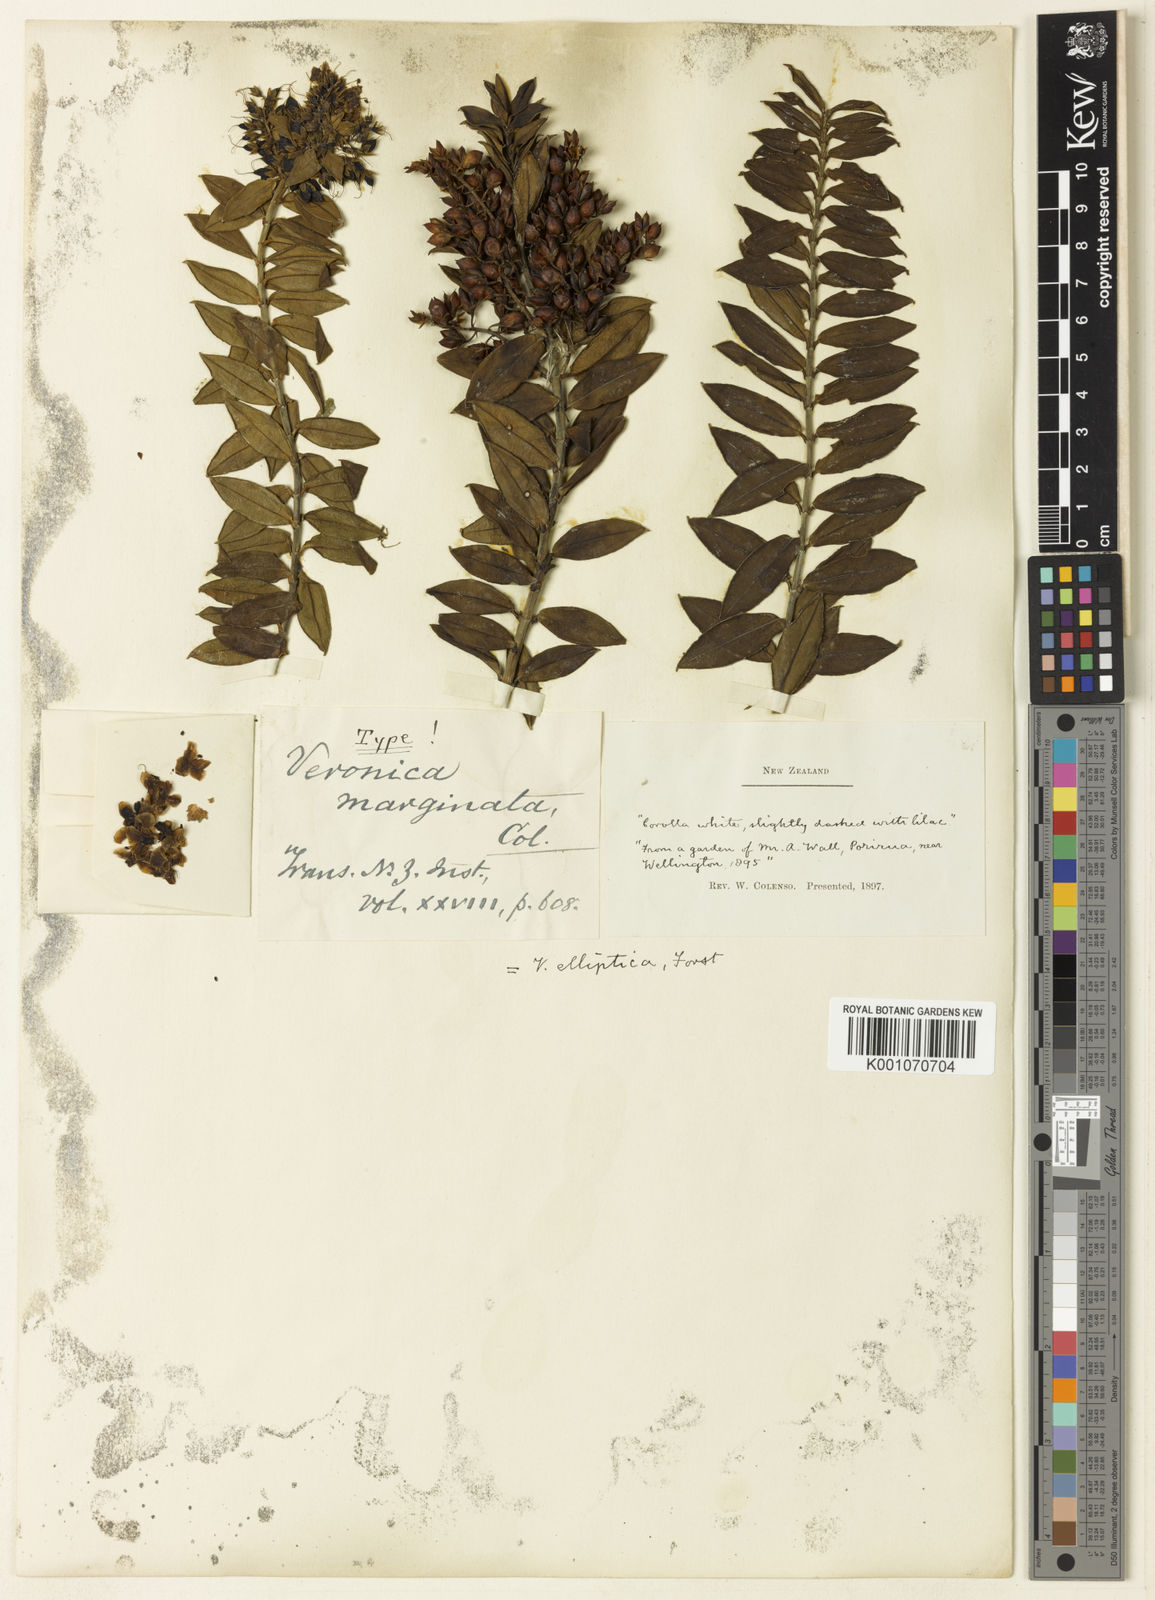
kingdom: Plantae
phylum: Tracheophyta
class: Magnoliopsida
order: Lamiales
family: Plantaginaceae
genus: Veronica
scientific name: Veronica elliptica
